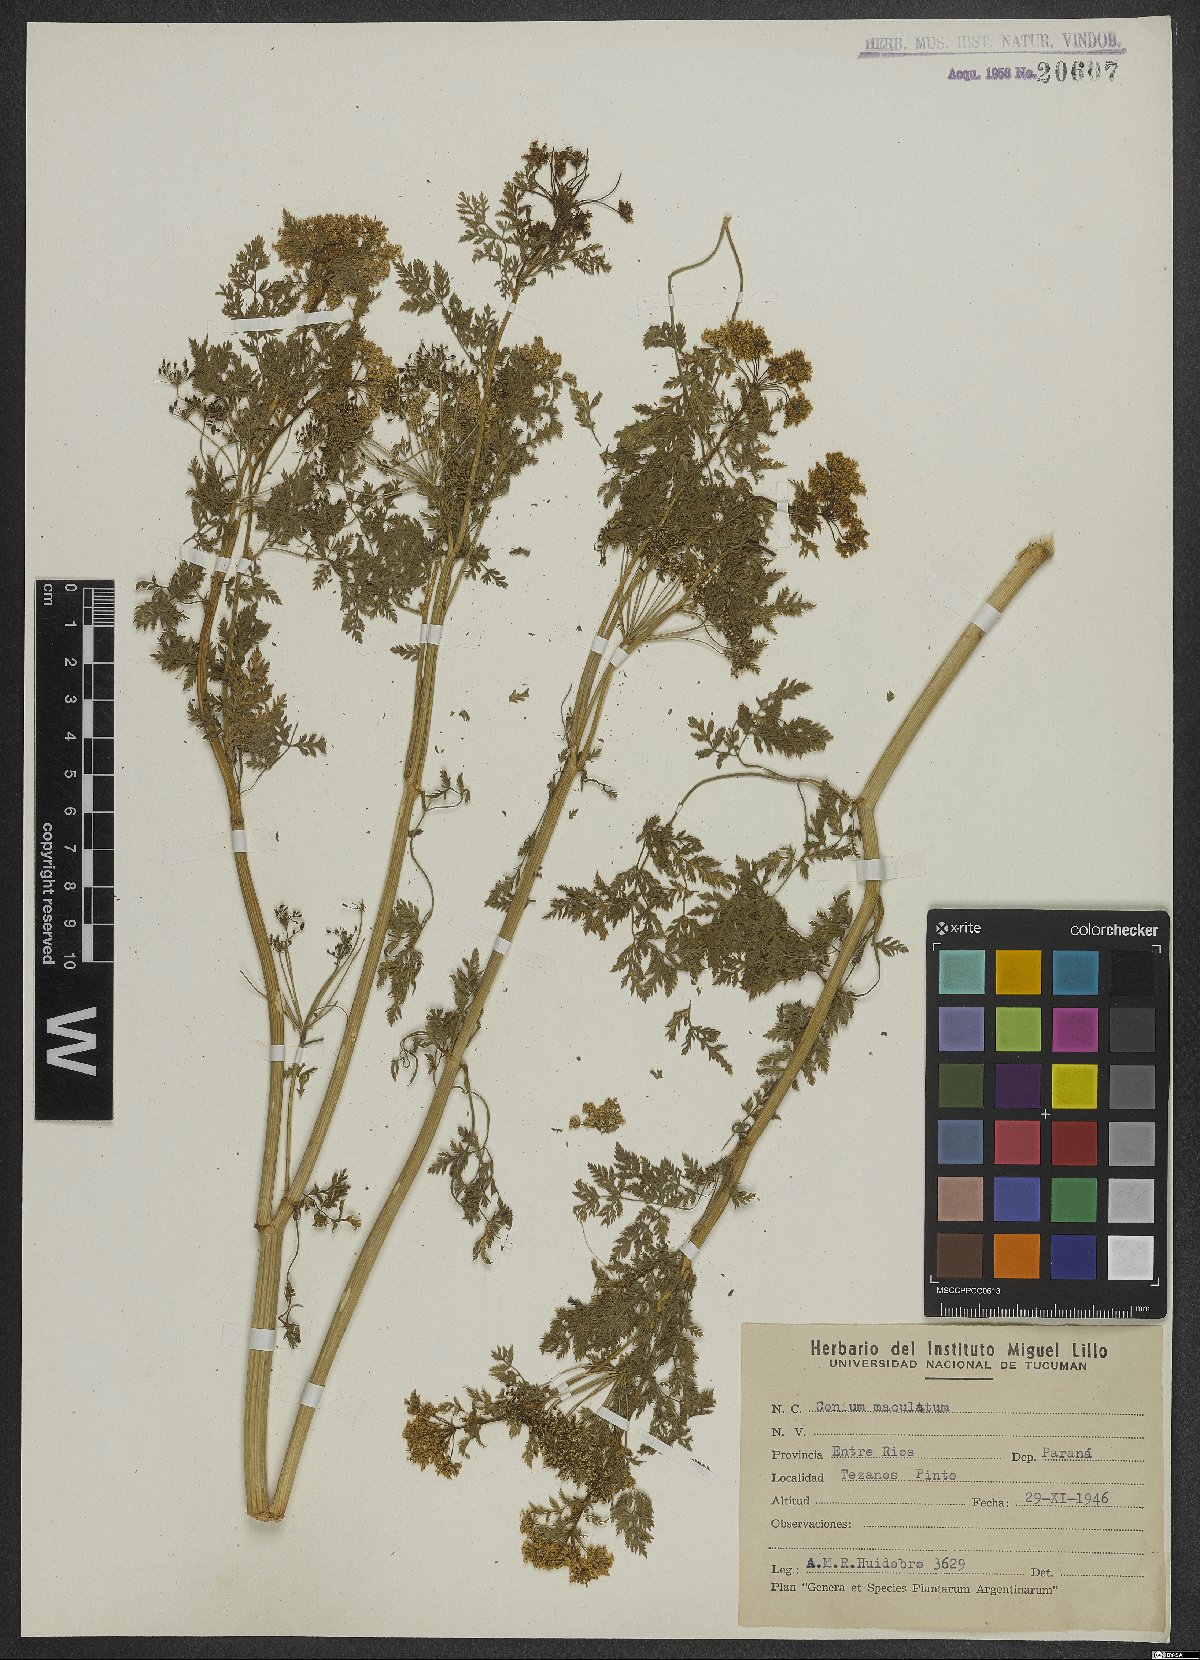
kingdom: Plantae
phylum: Tracheophyta
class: Magnoliopsida
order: Apiales
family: Apiaceae
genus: Conium
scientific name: Conium maculatum
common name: Hemlock
